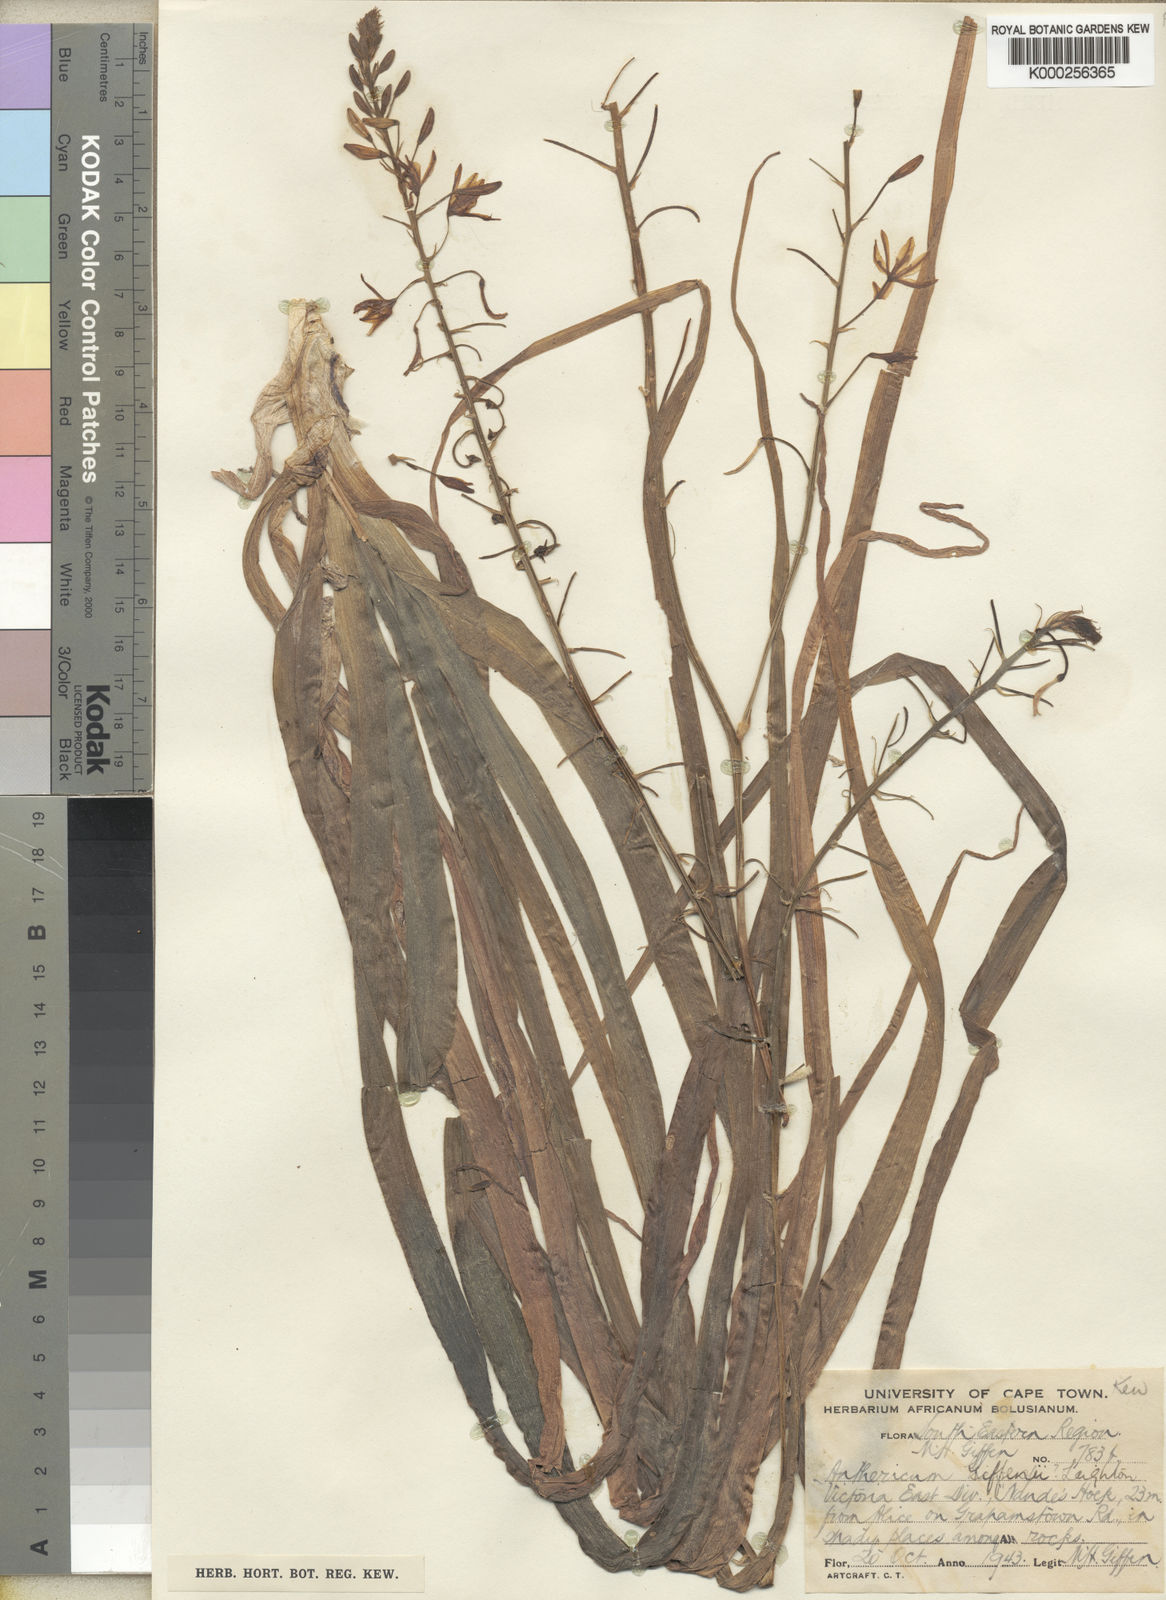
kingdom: Plantae
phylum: Tracheophyta
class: Liliopsida
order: Asparagales
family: Asphodelaceae
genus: Trachyandra
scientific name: Trachyandra giffenii
